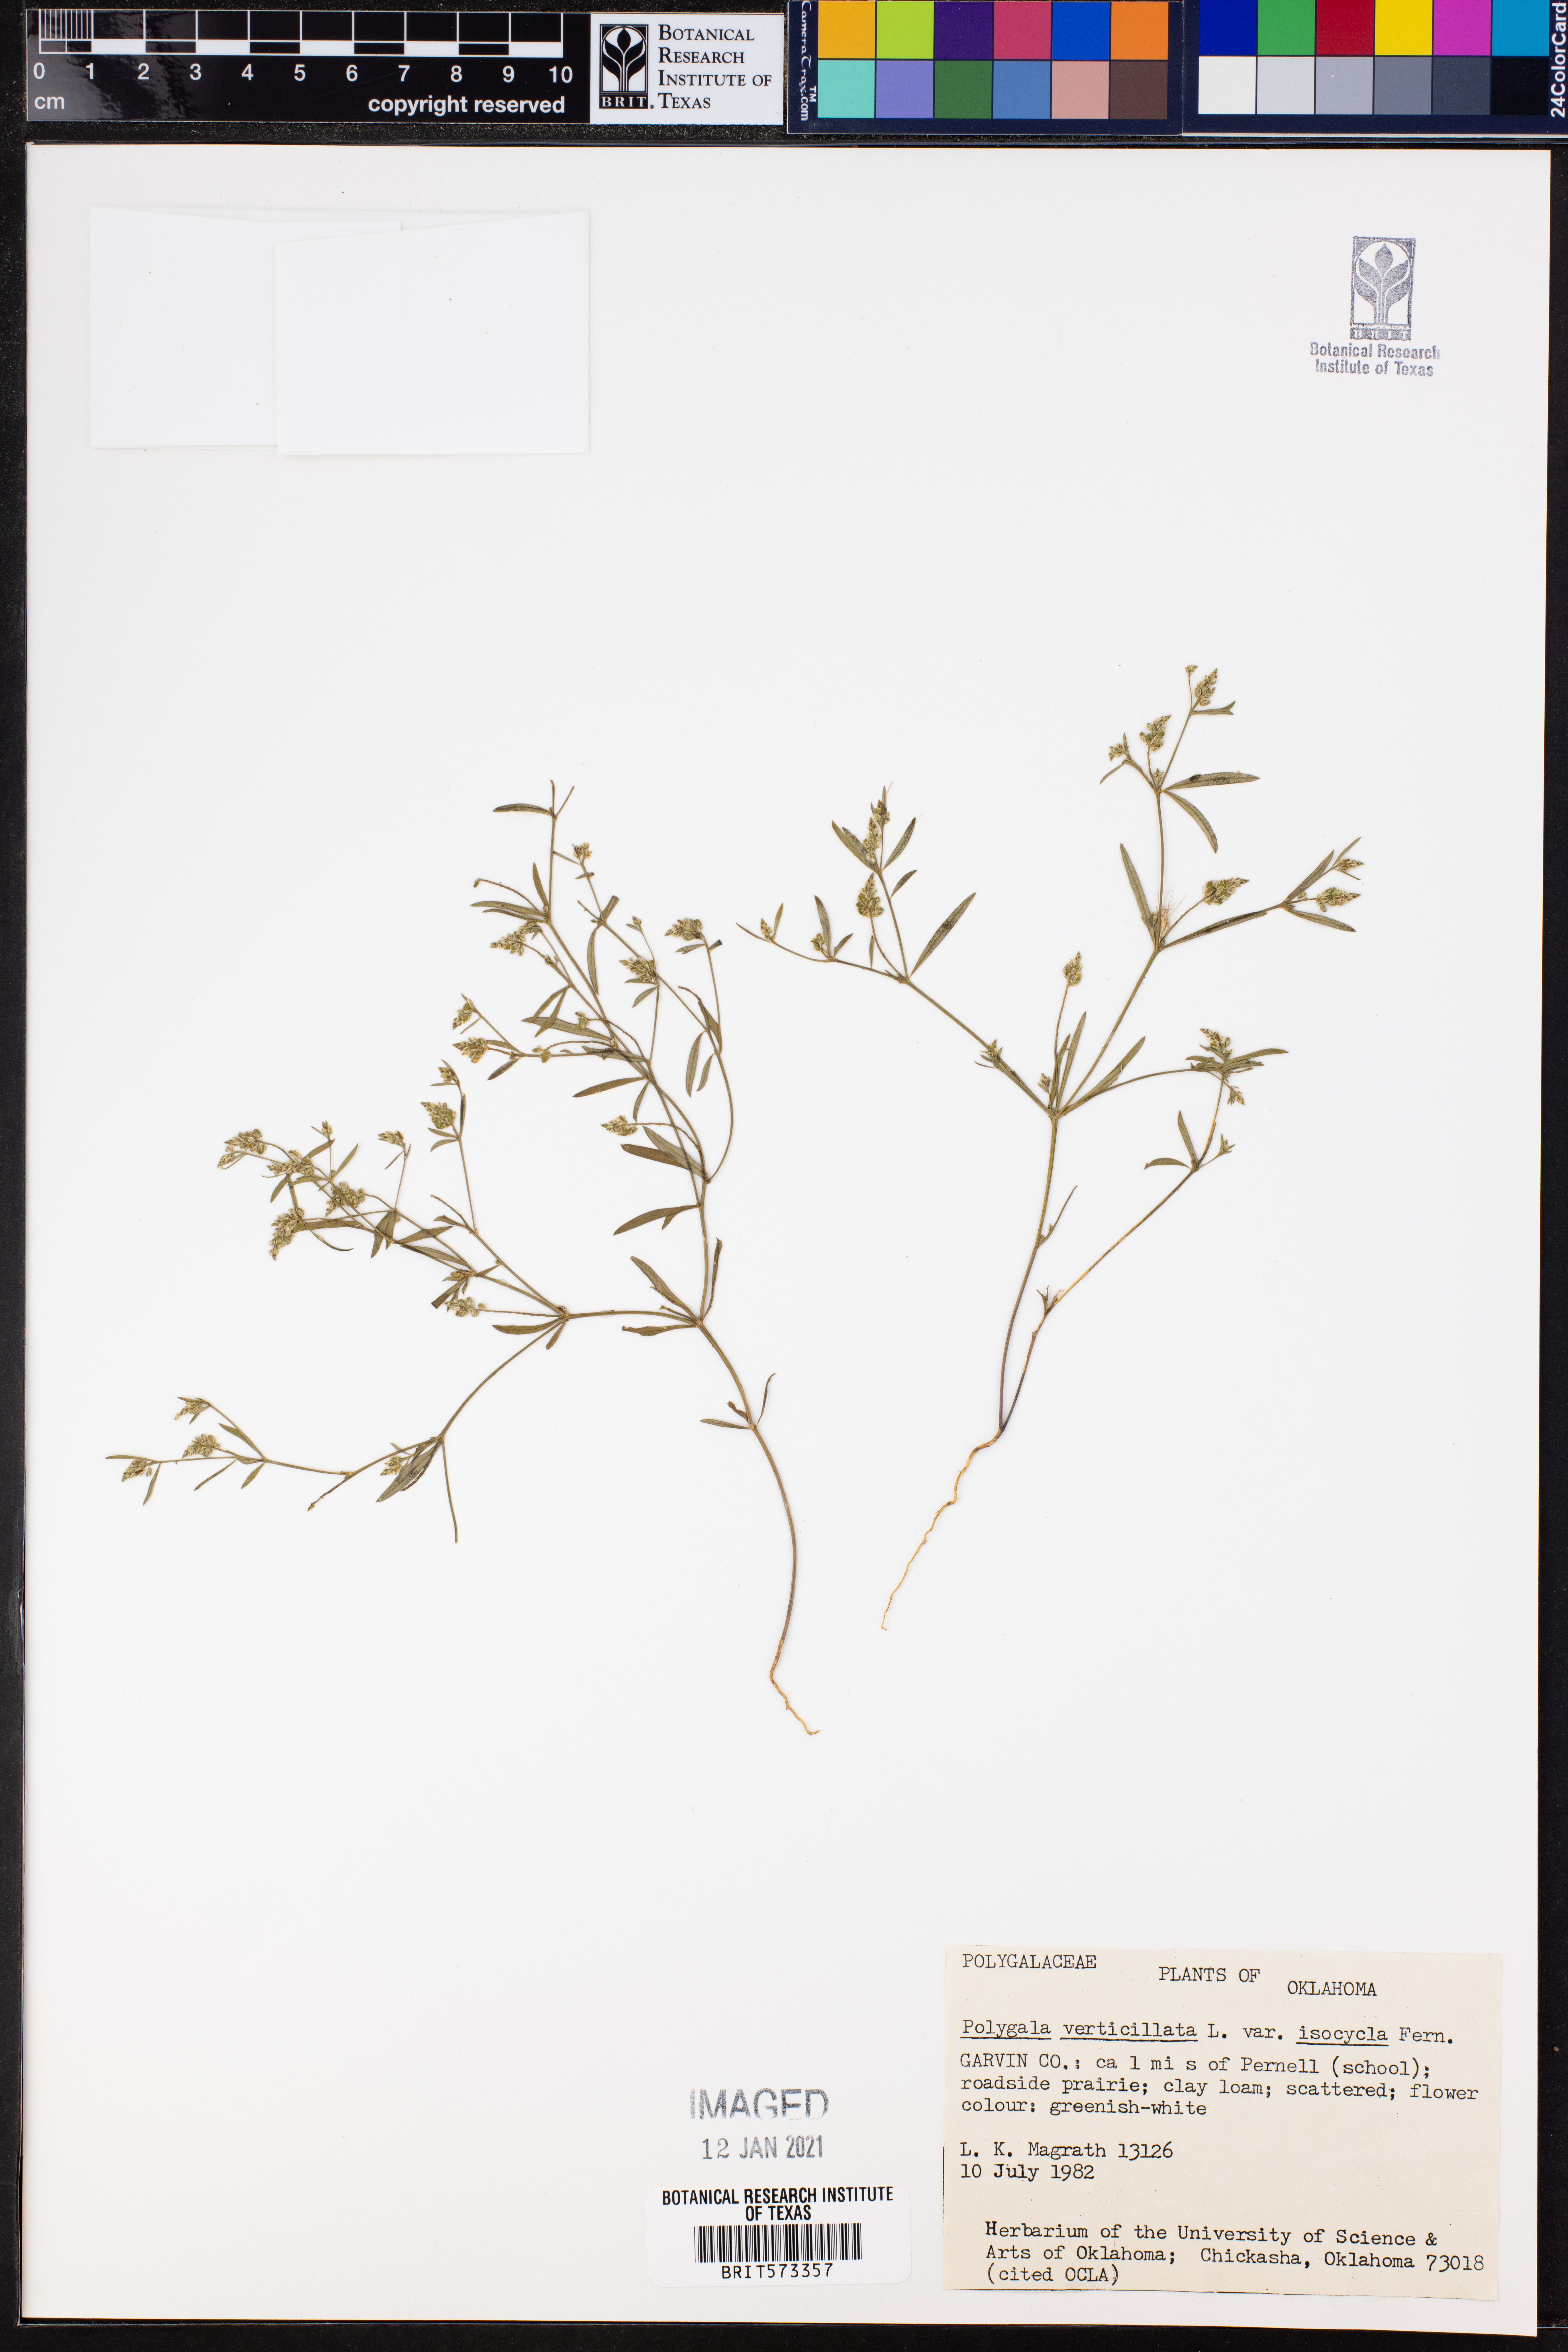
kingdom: Plantae
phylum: Tracheophyta
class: Magnoliopsida
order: Fabales
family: Polygalaceae
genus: Polygala
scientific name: Polygala verticillata
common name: Whorl milkwort
